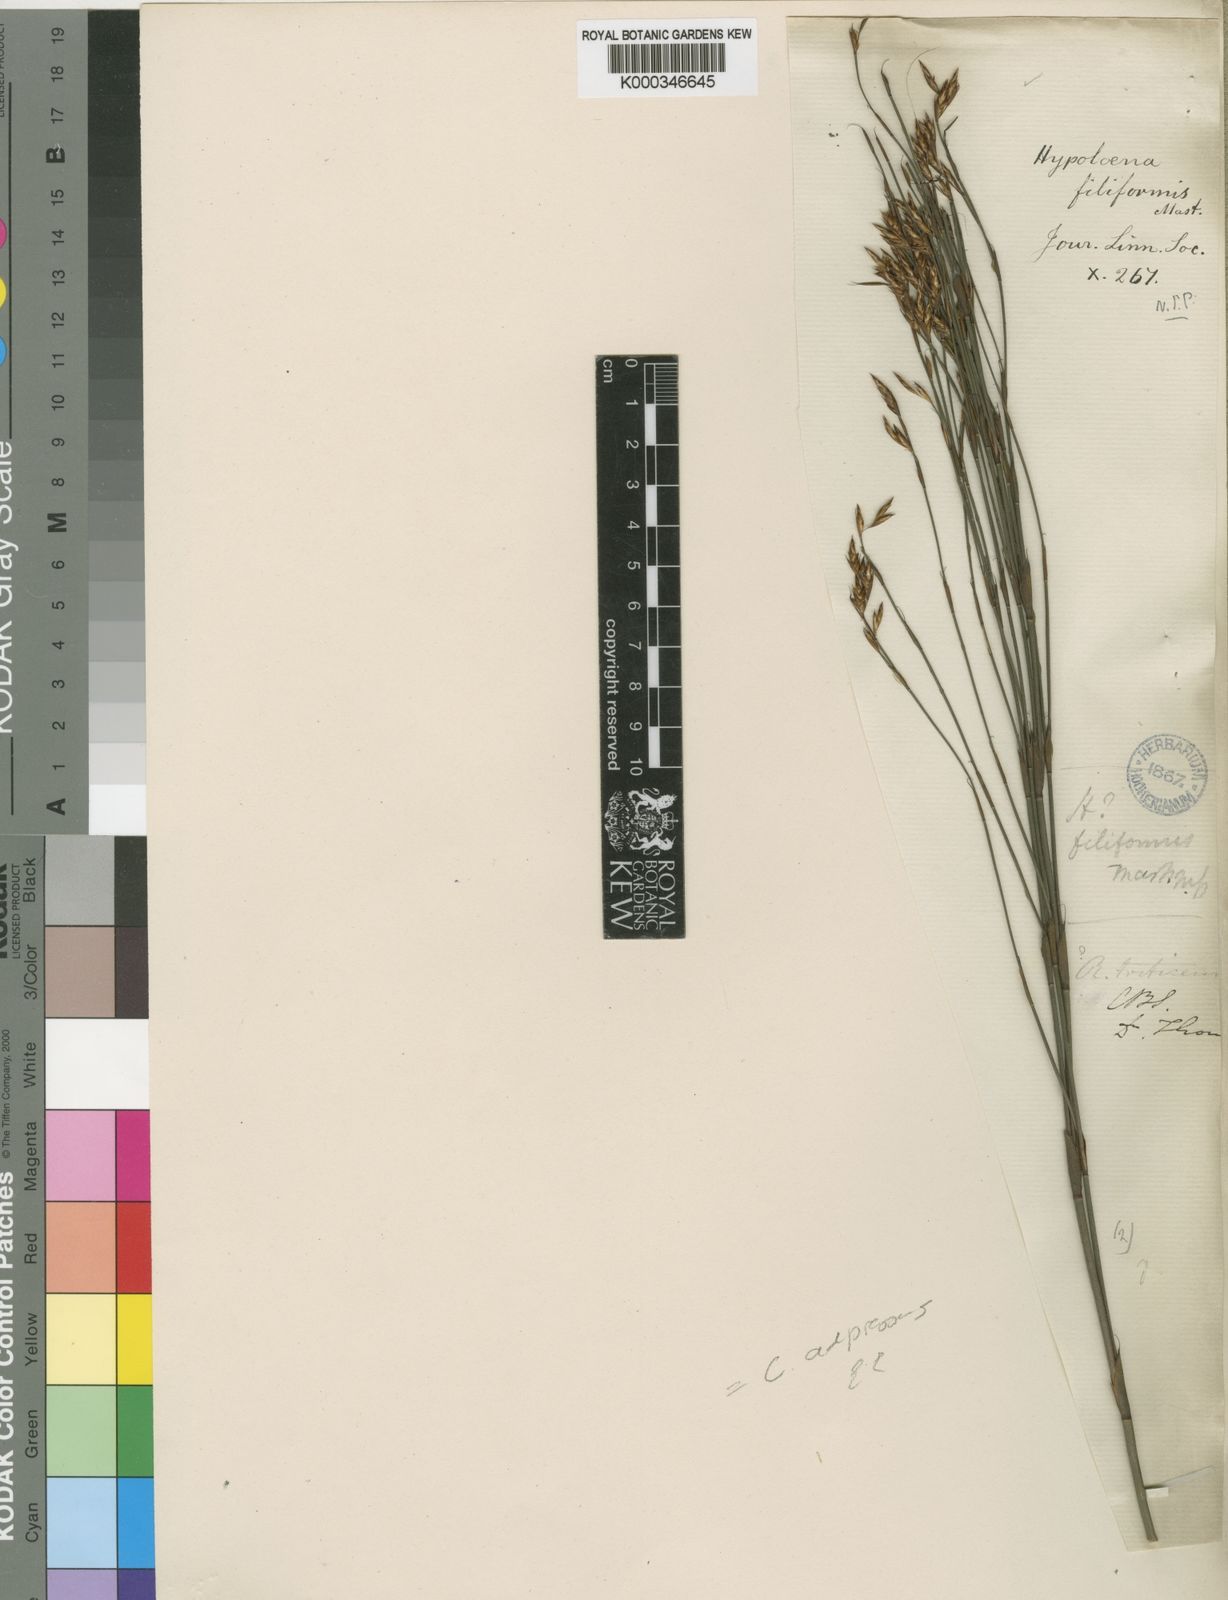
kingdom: Plantae
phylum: Tracheophyta
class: Liliopsida
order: Poales
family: Restionaceae
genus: Restio
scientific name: Restio tenuispicatus
